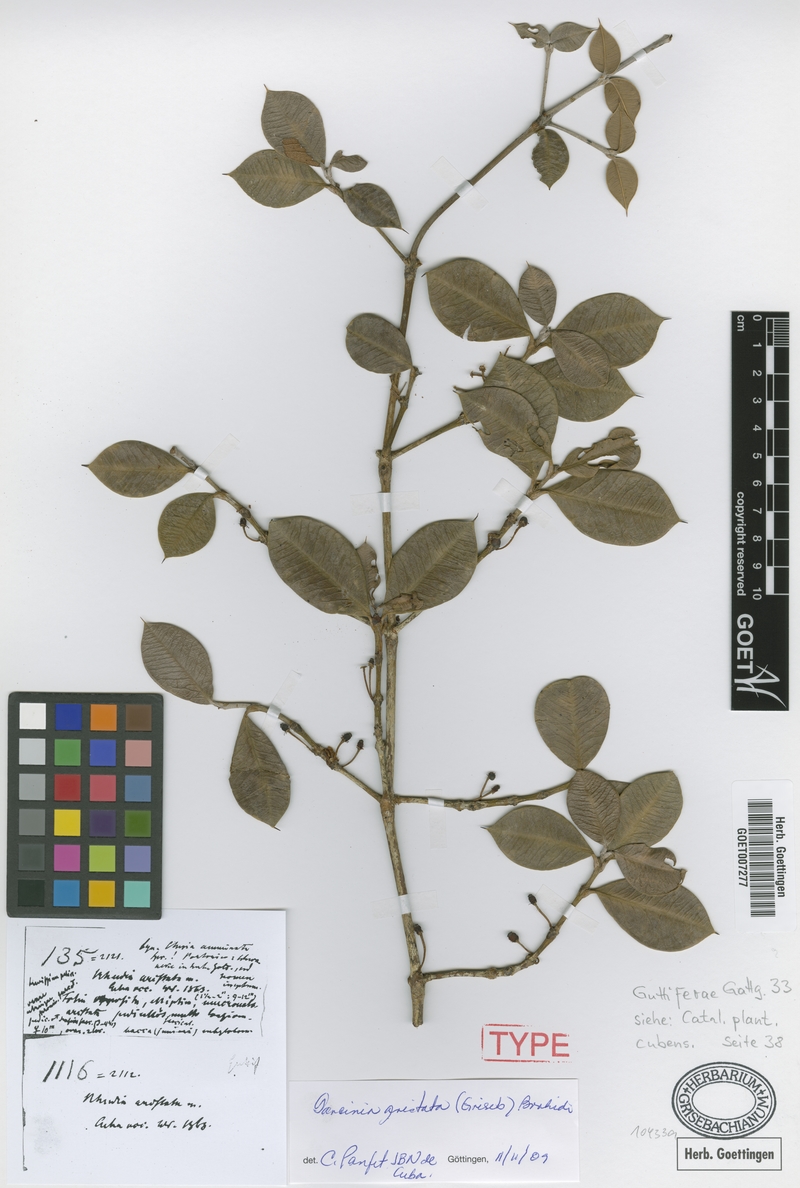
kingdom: Plantae
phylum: Tracheophyta
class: Magnoliopsida
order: Malpighiales
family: Clusiaceae
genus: Garcinia
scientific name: Garcinia aristata
